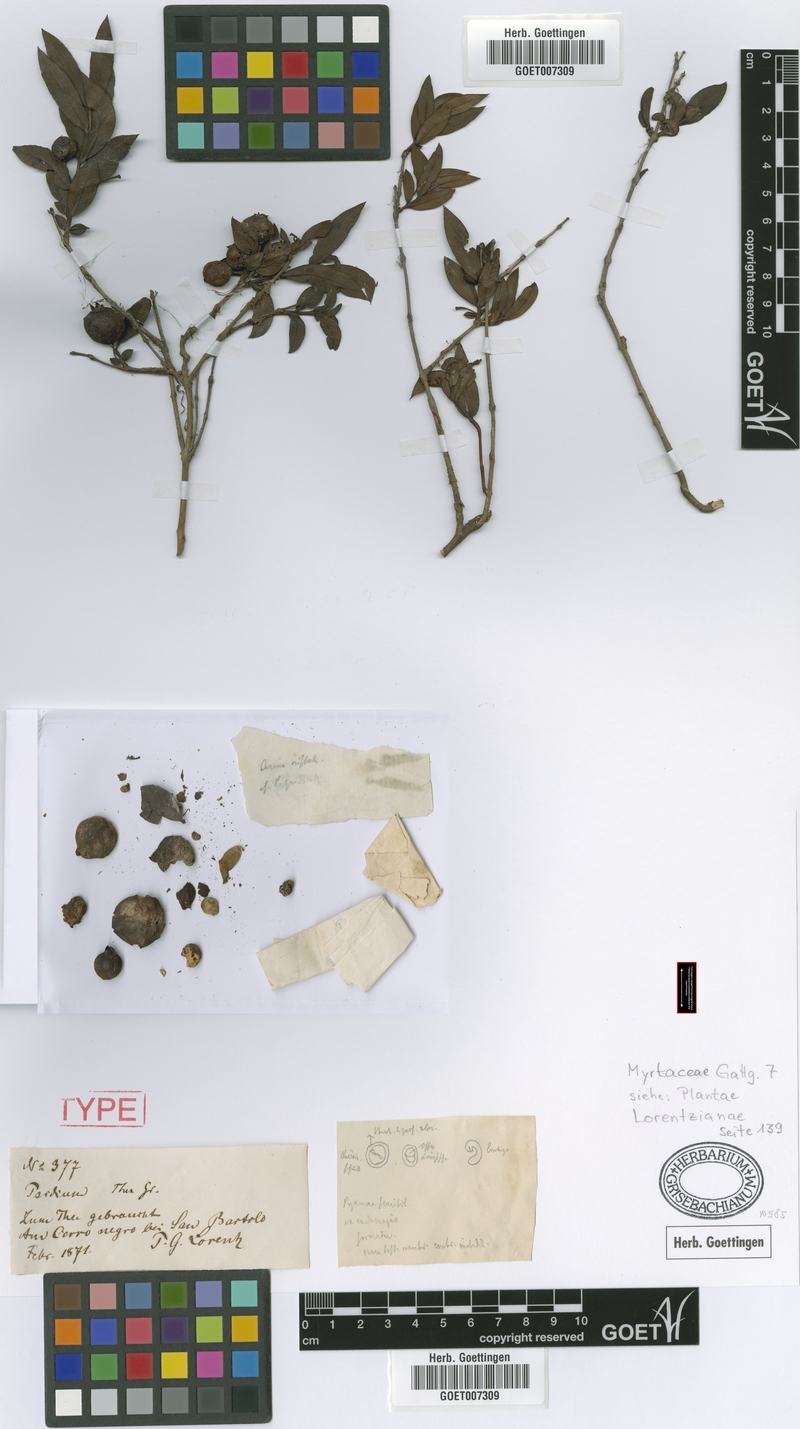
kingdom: Plantae
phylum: Tracheophyta
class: Magnoliopsida
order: Myrtales
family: Myrtaceae
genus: Psidium
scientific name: Psidium salutare
